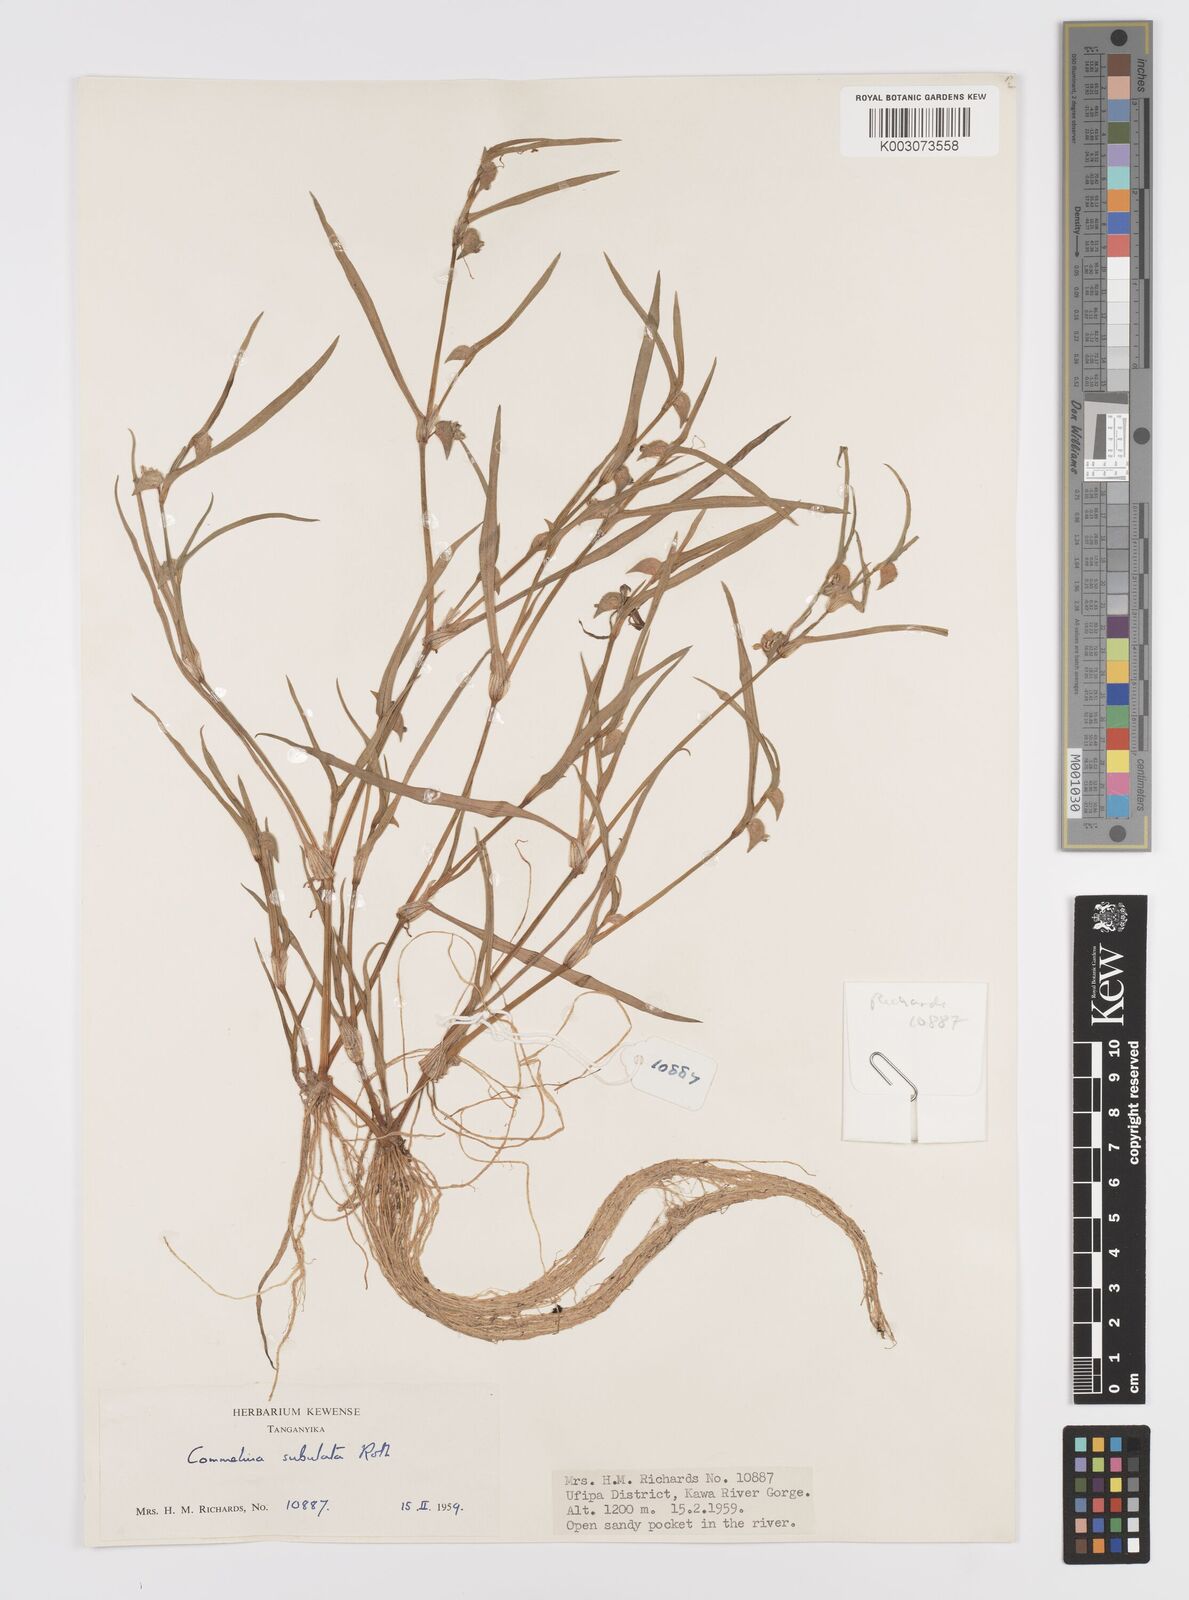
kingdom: Plantae
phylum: Tracheophyta
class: Liliopsida
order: Commelinales
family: Commelinaceae
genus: Commelina
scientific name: Commelina subulata
